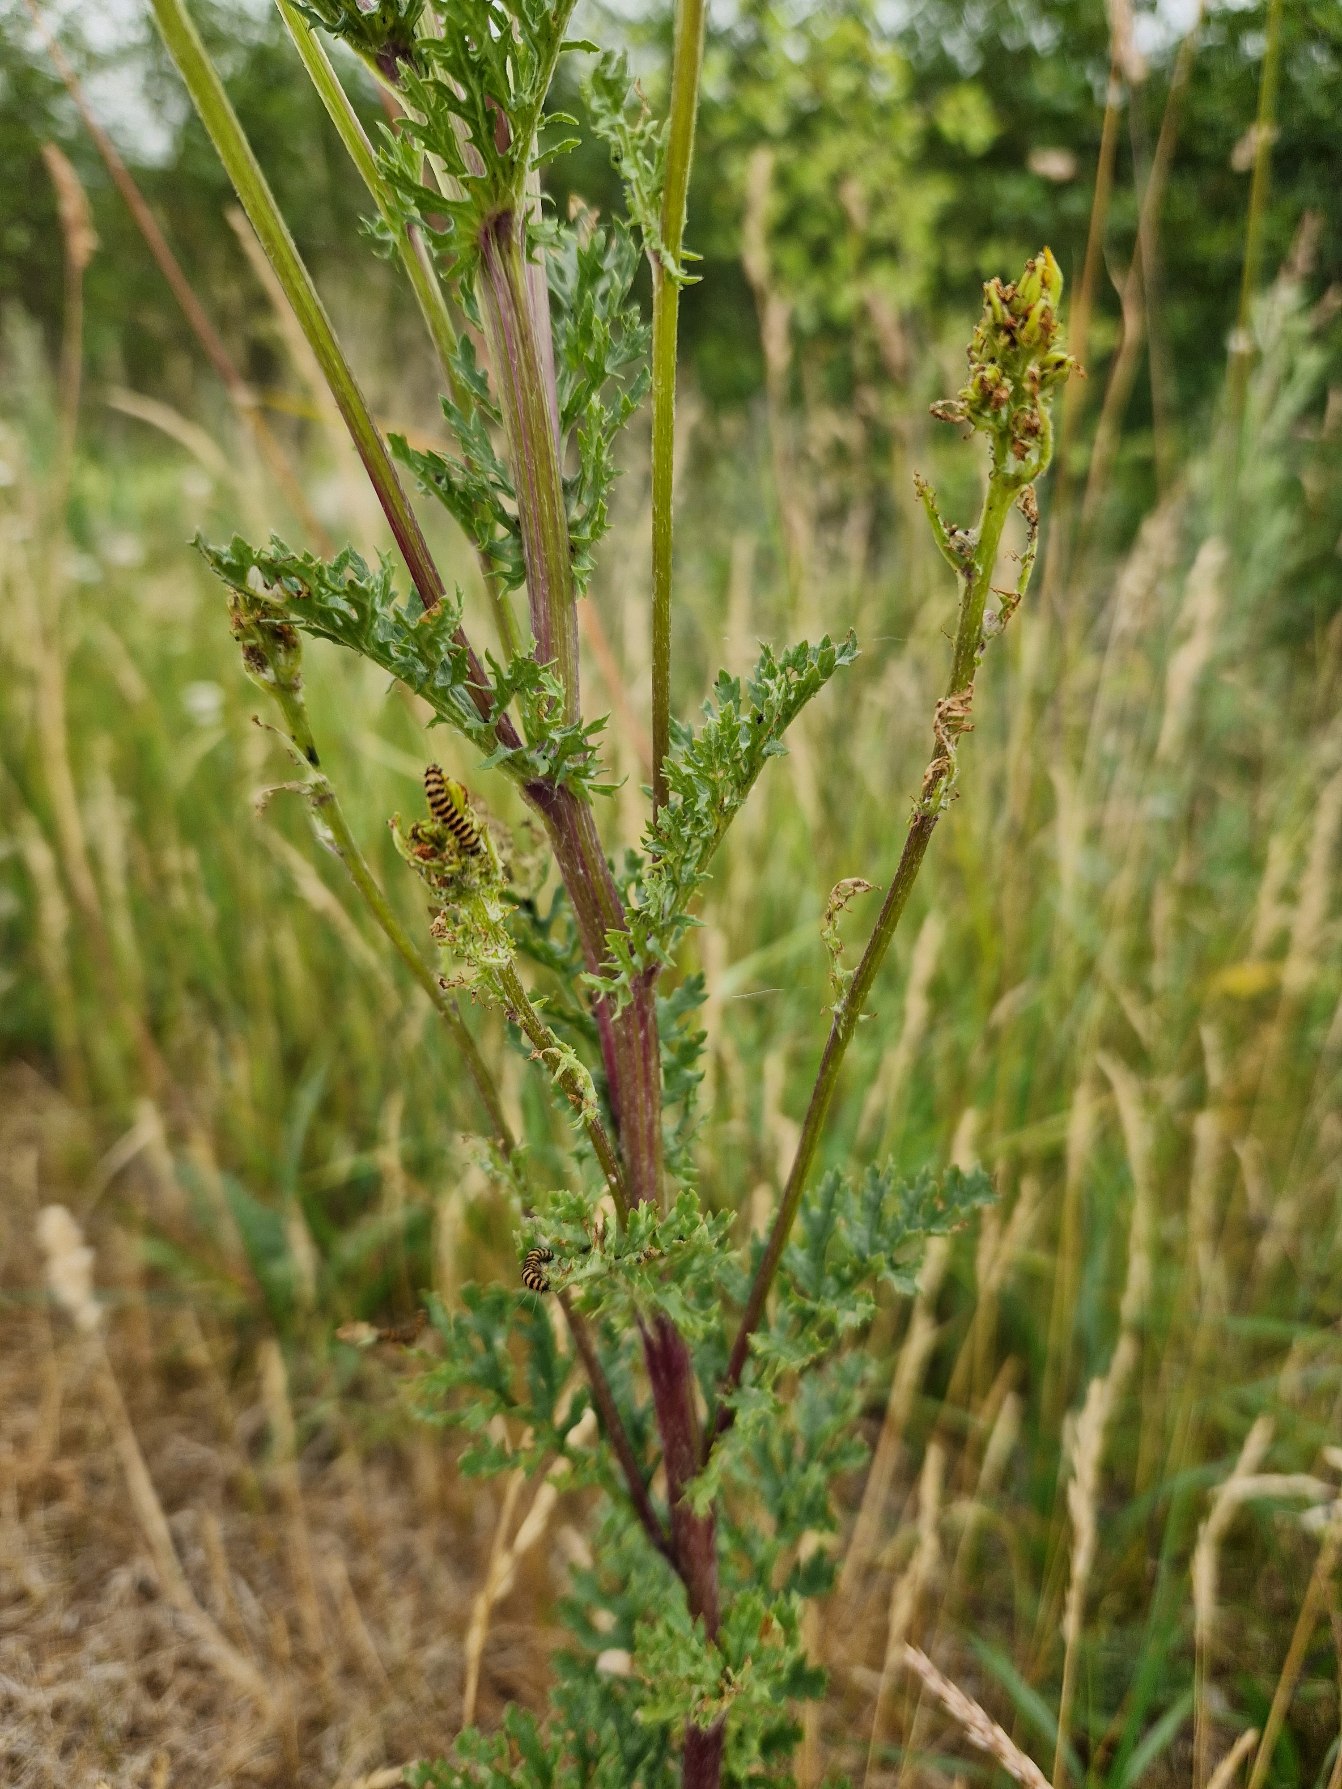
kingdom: Animalia
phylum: Arthropoda
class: Insecta
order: Lepidoptera
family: Erebidae
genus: Tyria
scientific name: Tyria jacobaeae
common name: Blodplet
